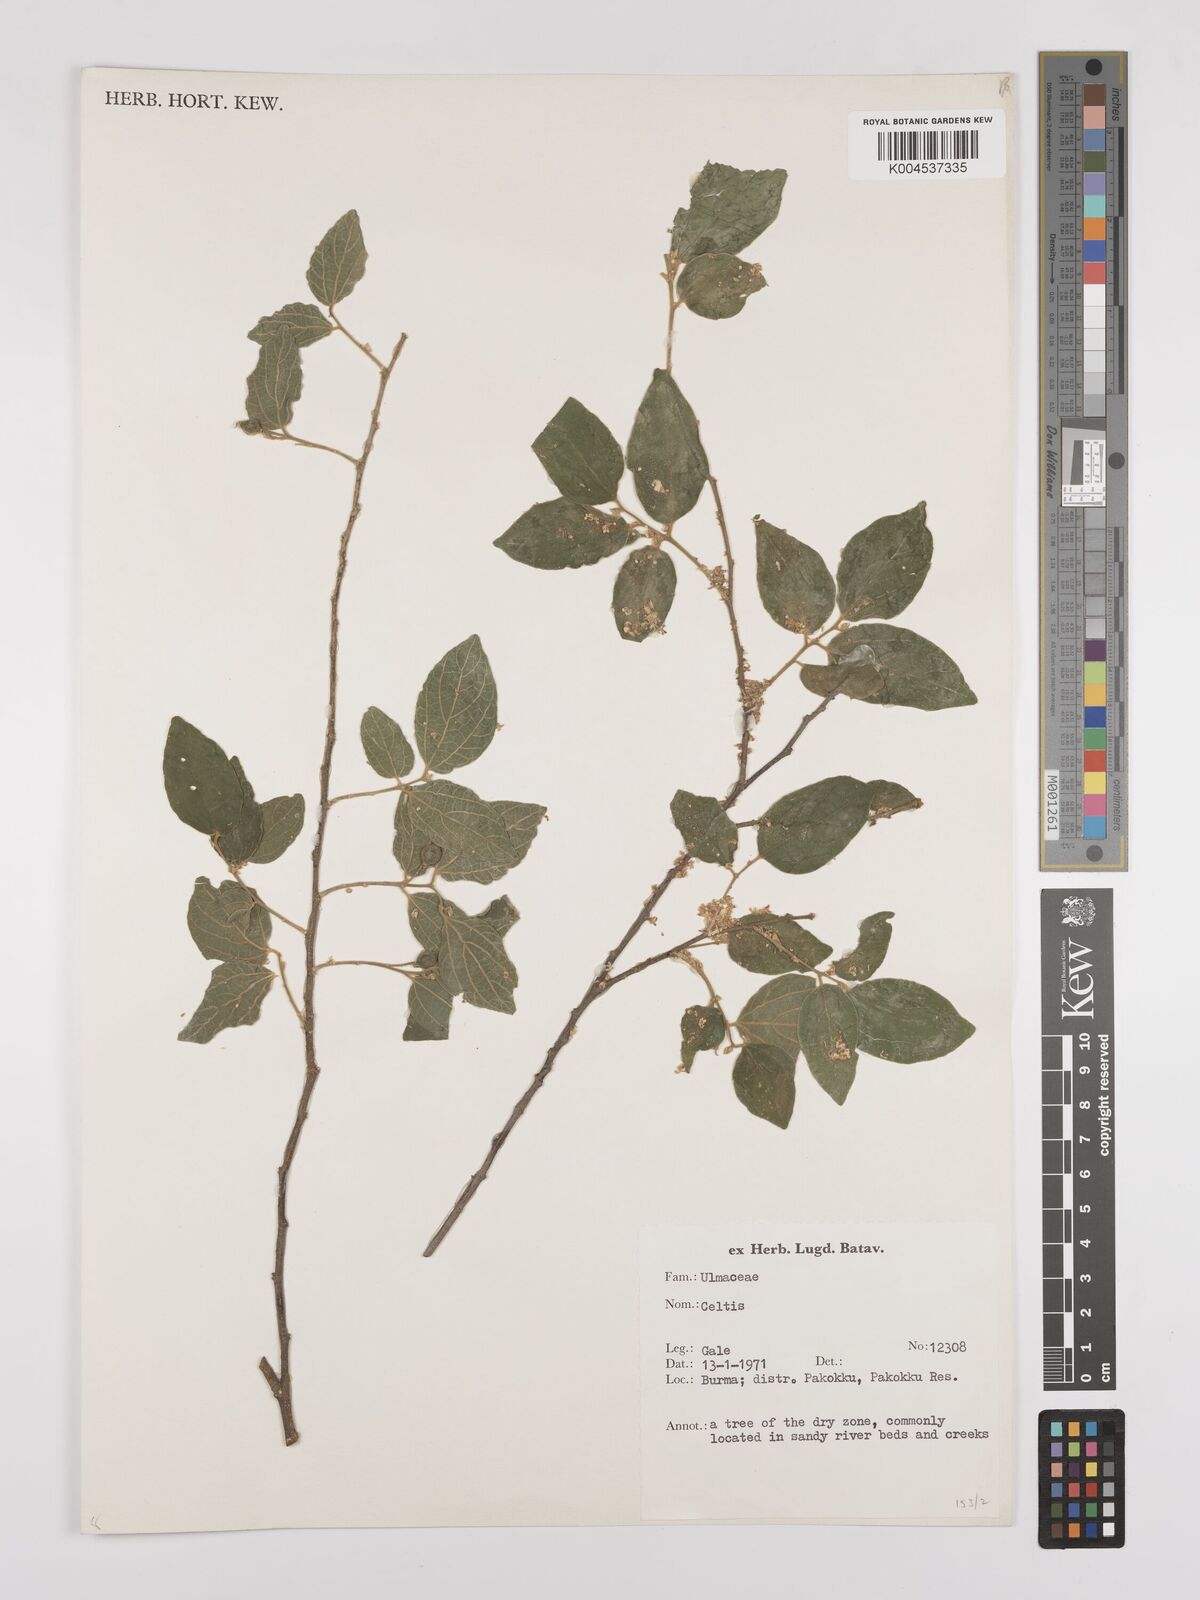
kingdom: Plantae
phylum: Tracheophyta
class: Magnoliopsida
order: Rosales
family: Cannabaceae
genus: Celtis
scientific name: Celtis
